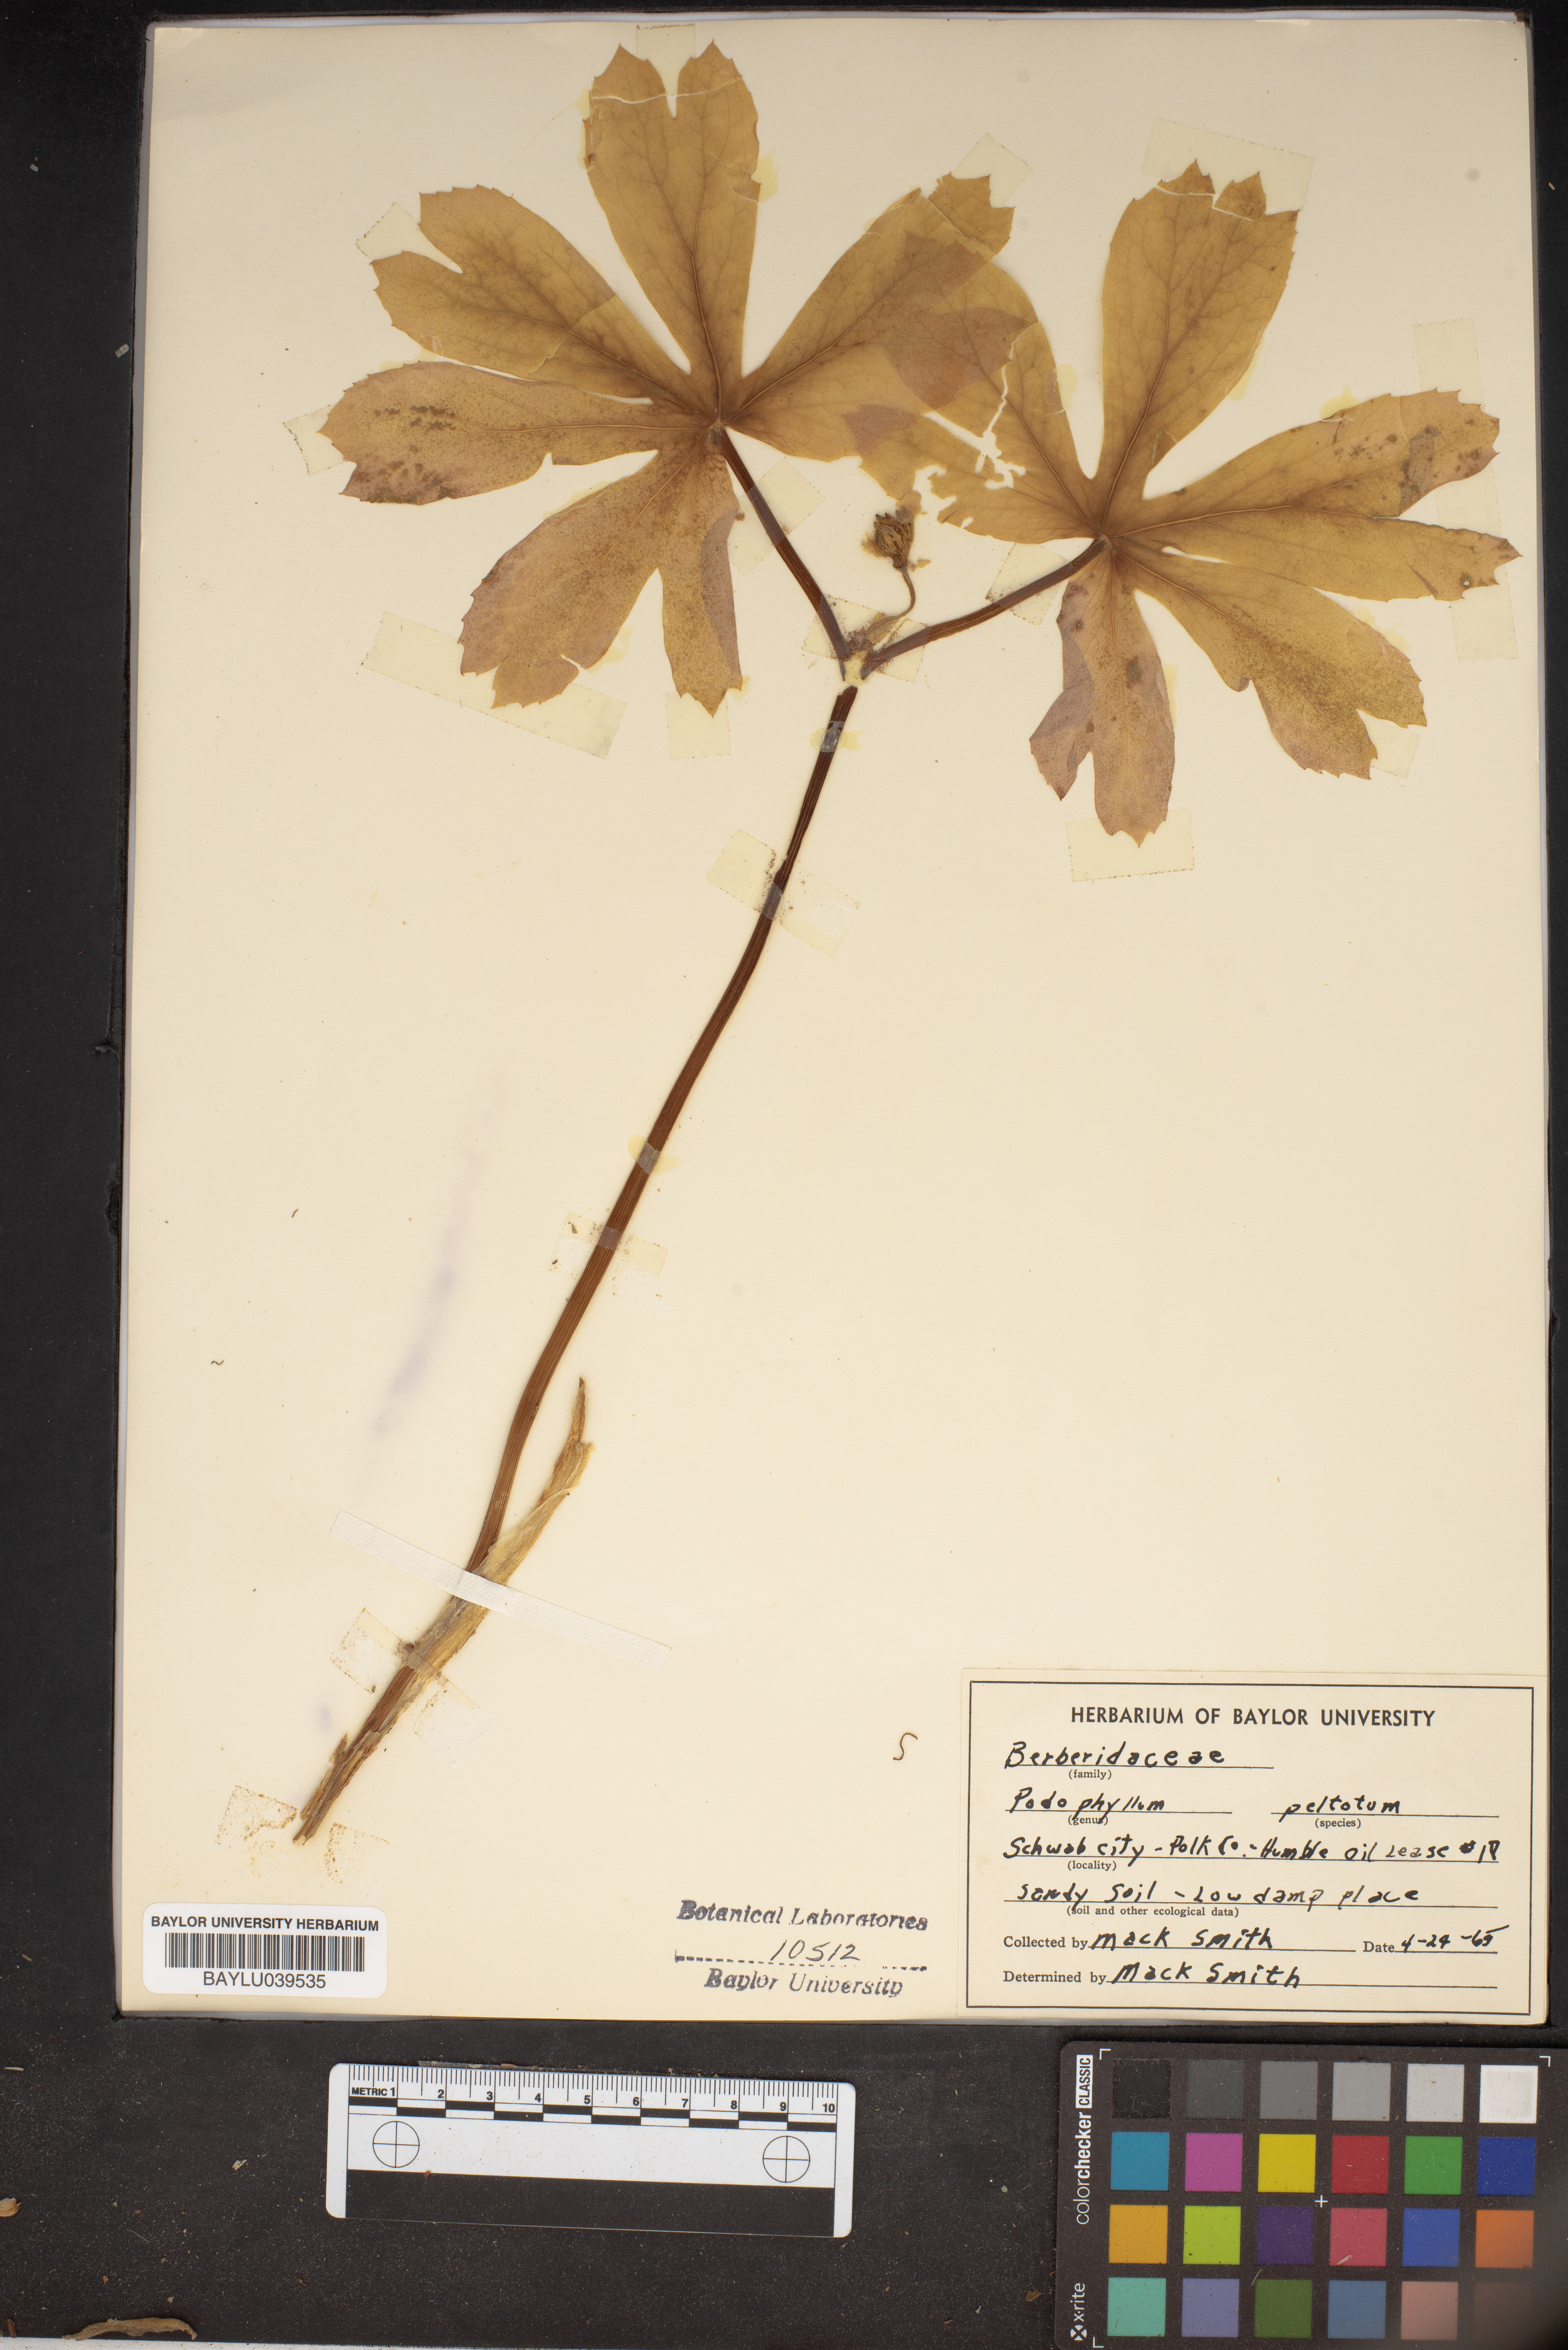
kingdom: Plantae
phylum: Tracheophyta
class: Magnoliopsida
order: Ranunculales
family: Berberidaceae
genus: Podophyllum
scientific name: Podophyllum peltatum
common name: Wild mandrake
